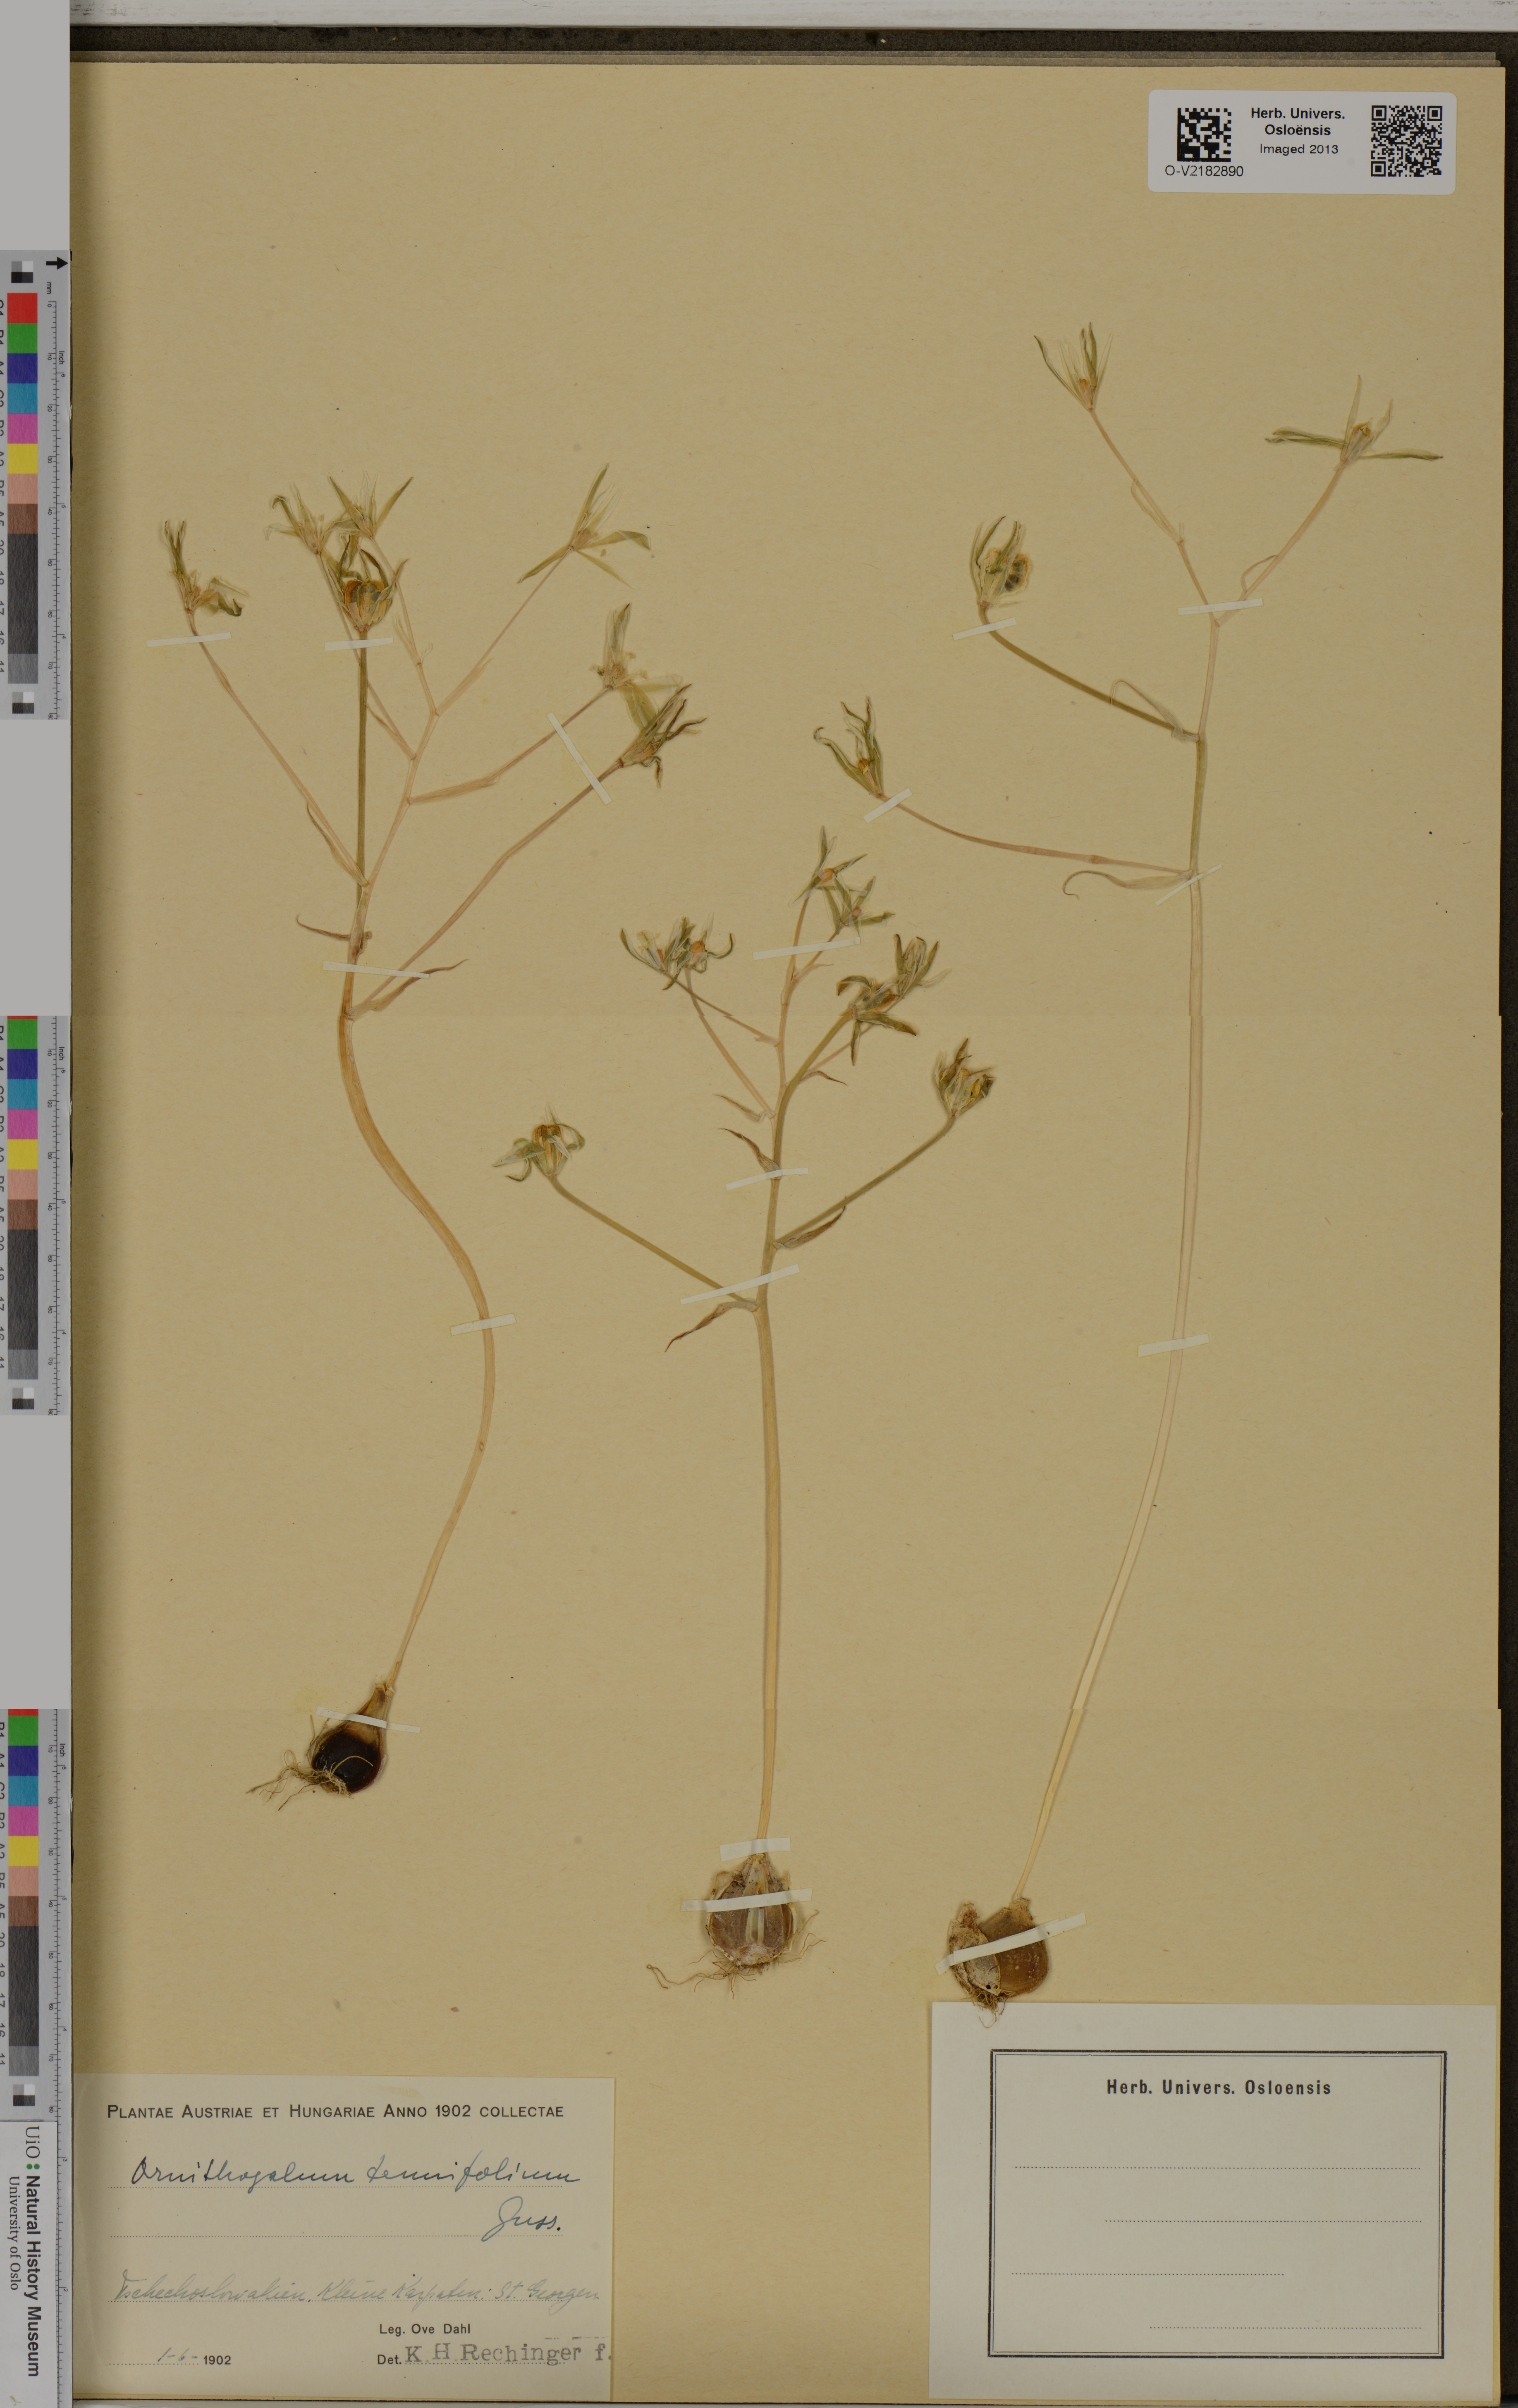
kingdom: Plantae
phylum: Tracheophyta
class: Liliopsida
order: Asparagales
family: Asparagaceae
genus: Ornithogalum
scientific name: Ornithogalum tenuifolium
